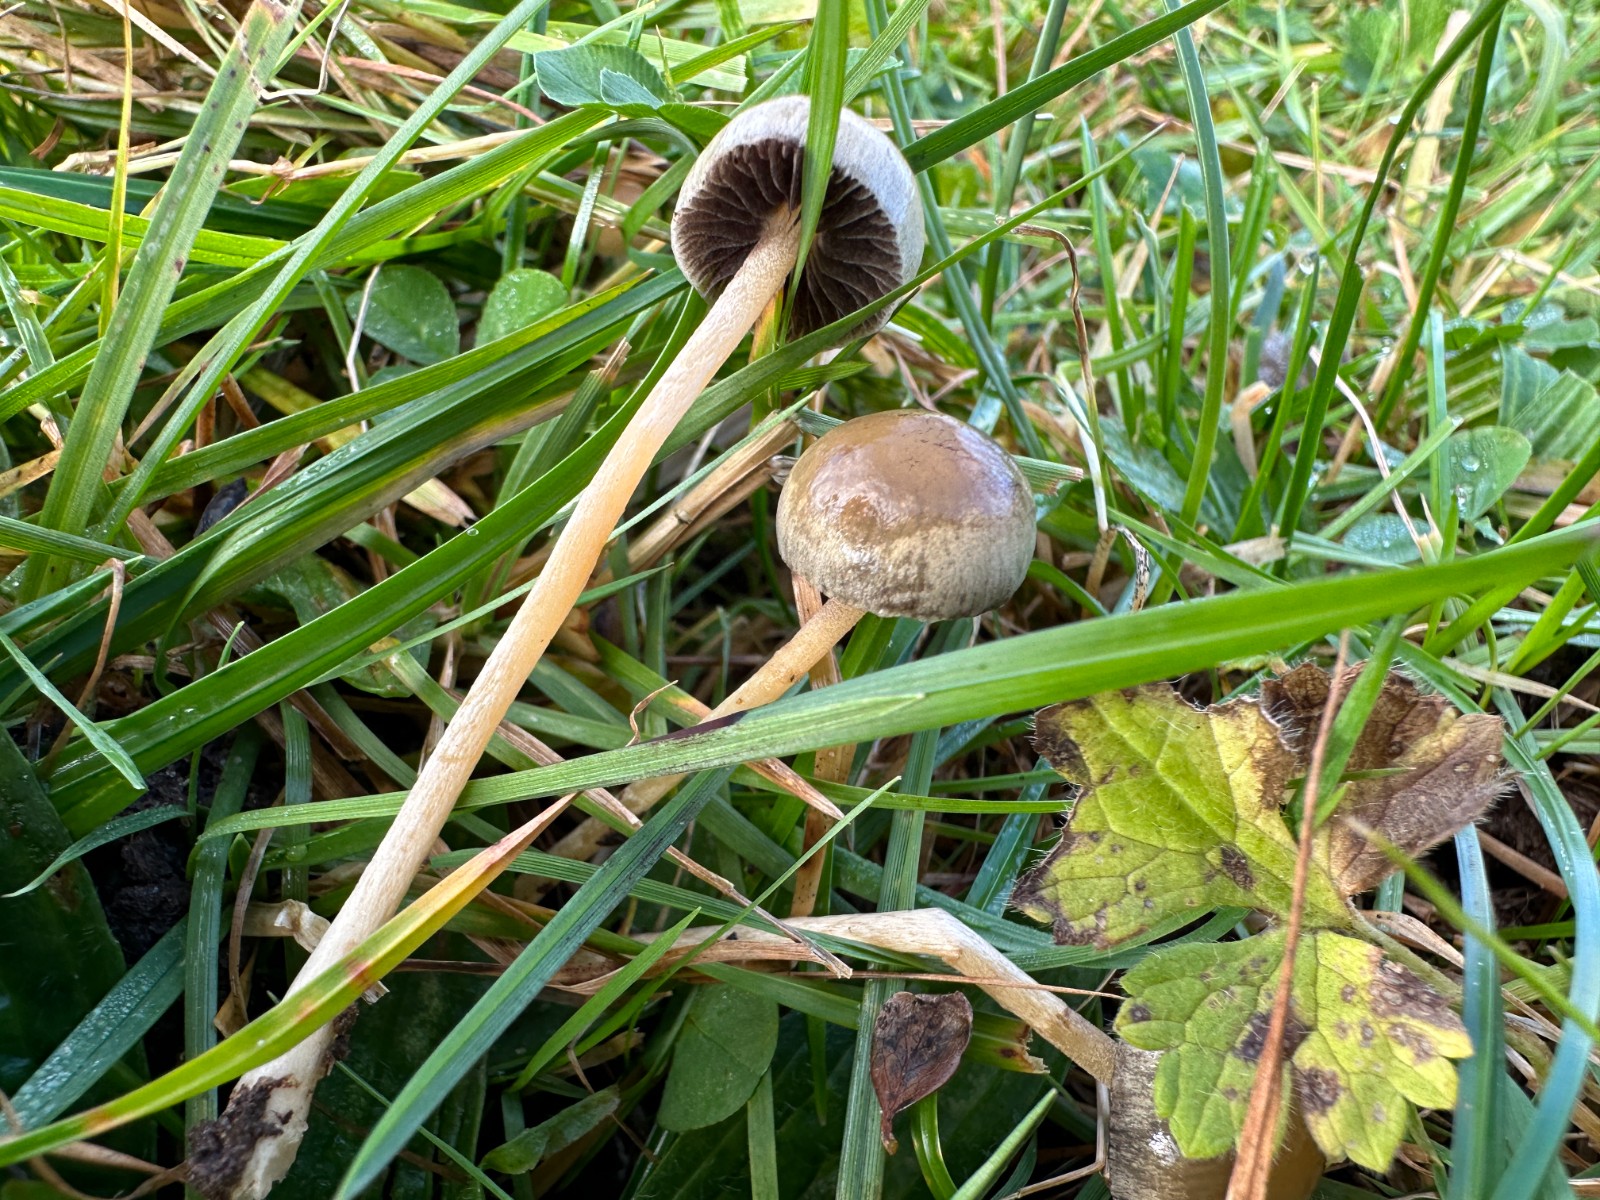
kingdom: Fungi
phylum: Basidiomycota
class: Agaricomycetes
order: Agaricales
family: Strophariaceae
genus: Protostropharia
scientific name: Protostropharia semiglobata
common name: halvkugleformet bredblad
